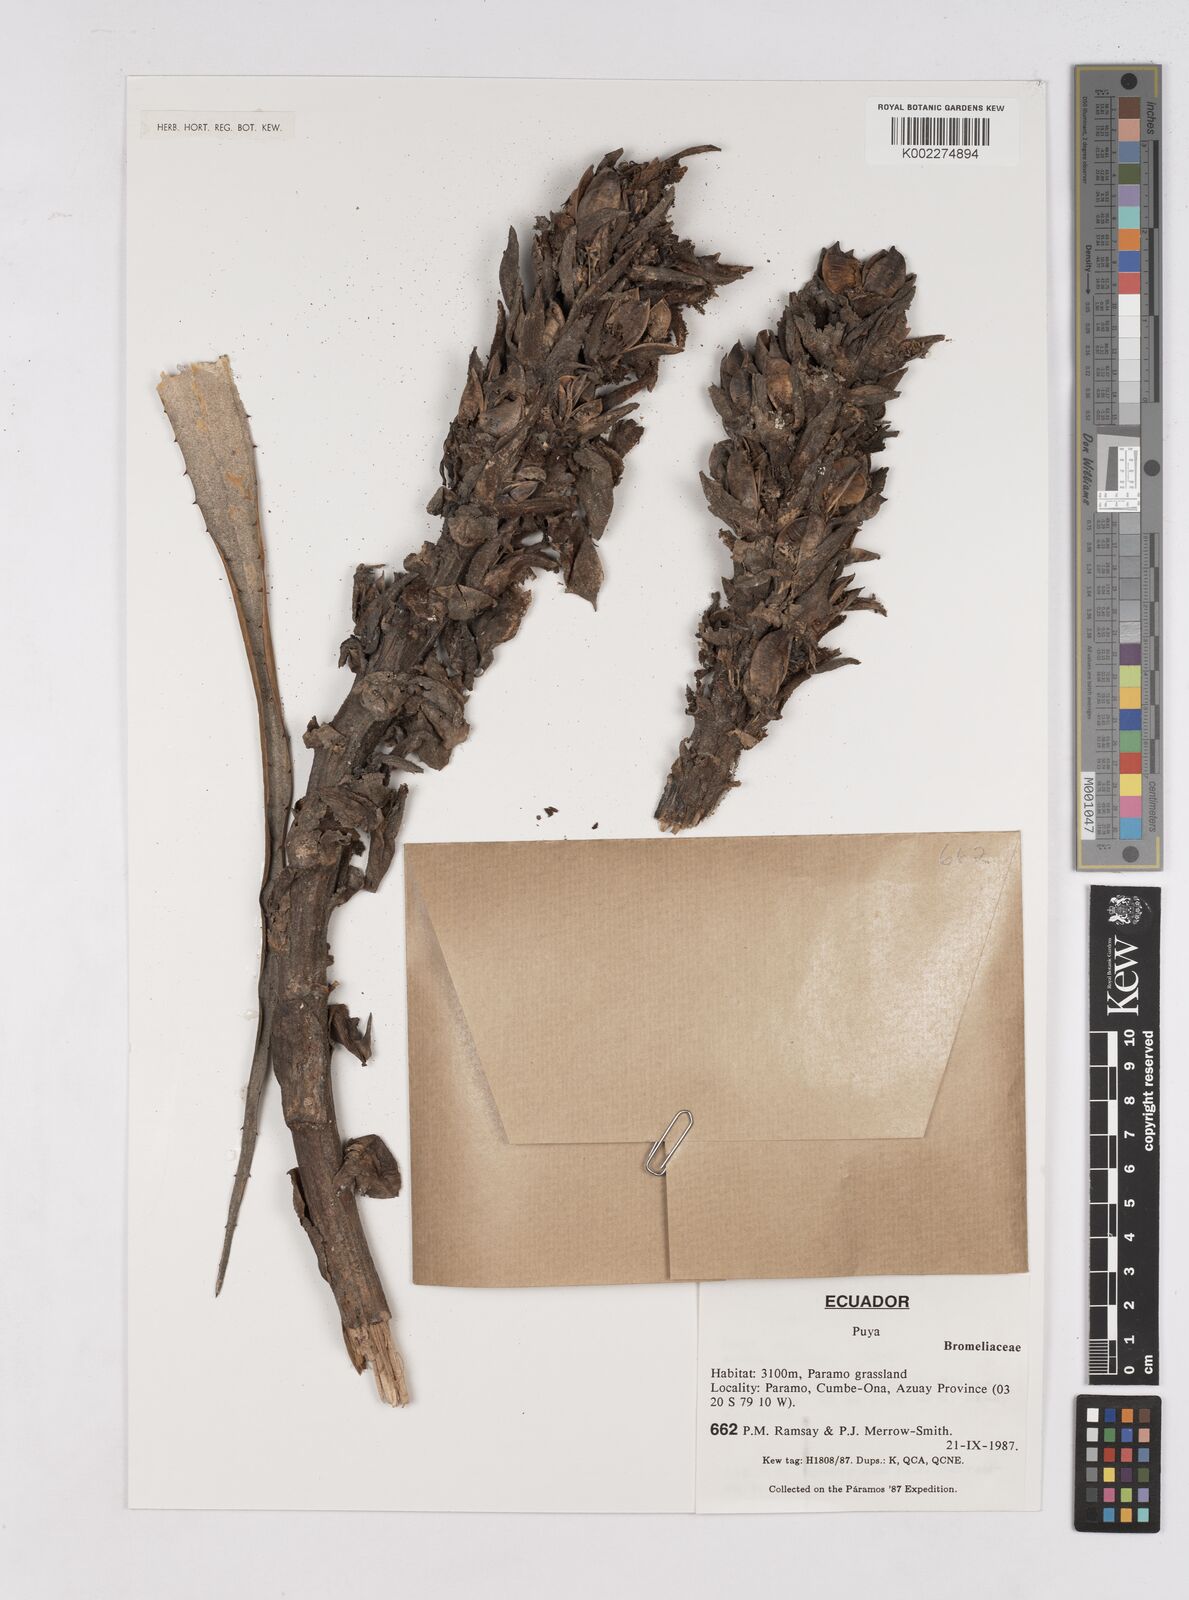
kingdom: Plantae
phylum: Tracheophyta
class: Liliopsida
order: Poales
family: Bromeliaceae
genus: Puya
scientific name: Puya
